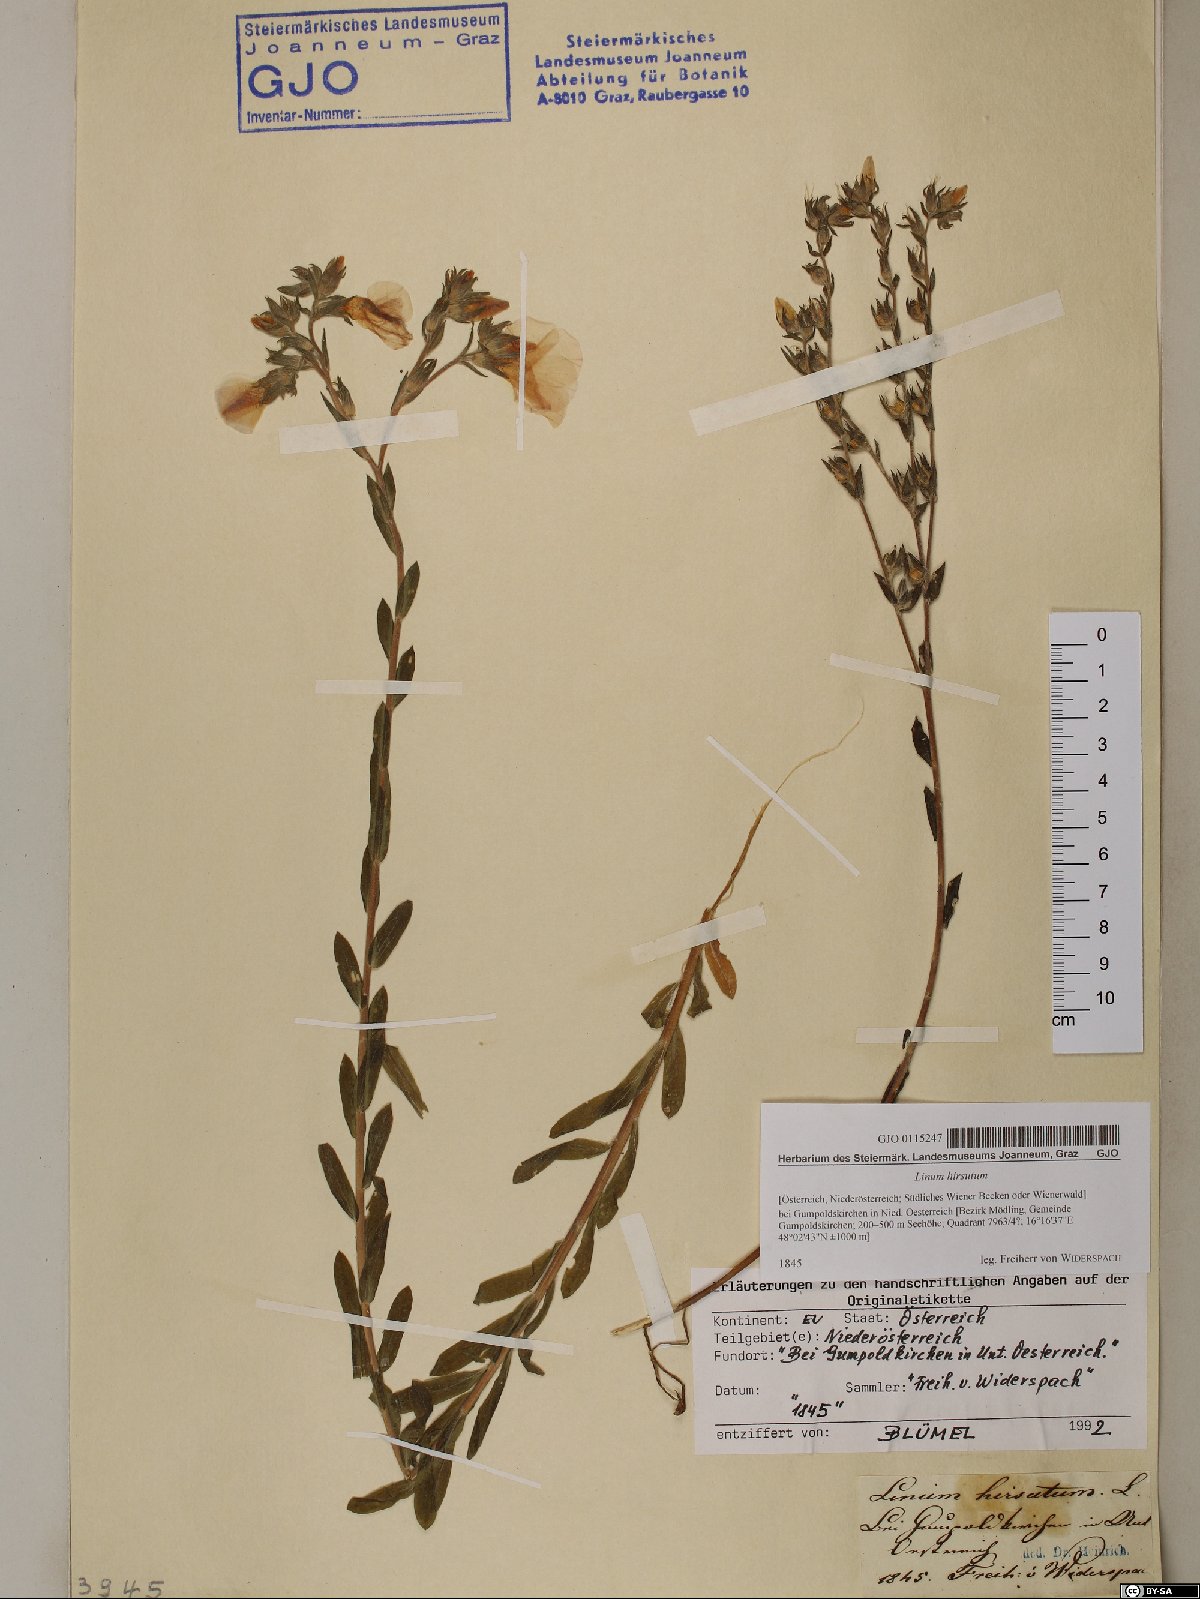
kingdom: Plantae
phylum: Tracheophyta
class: Magnoliopsida
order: Malpighiales
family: Linaceae
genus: Linum
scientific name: Linum hirsutum
